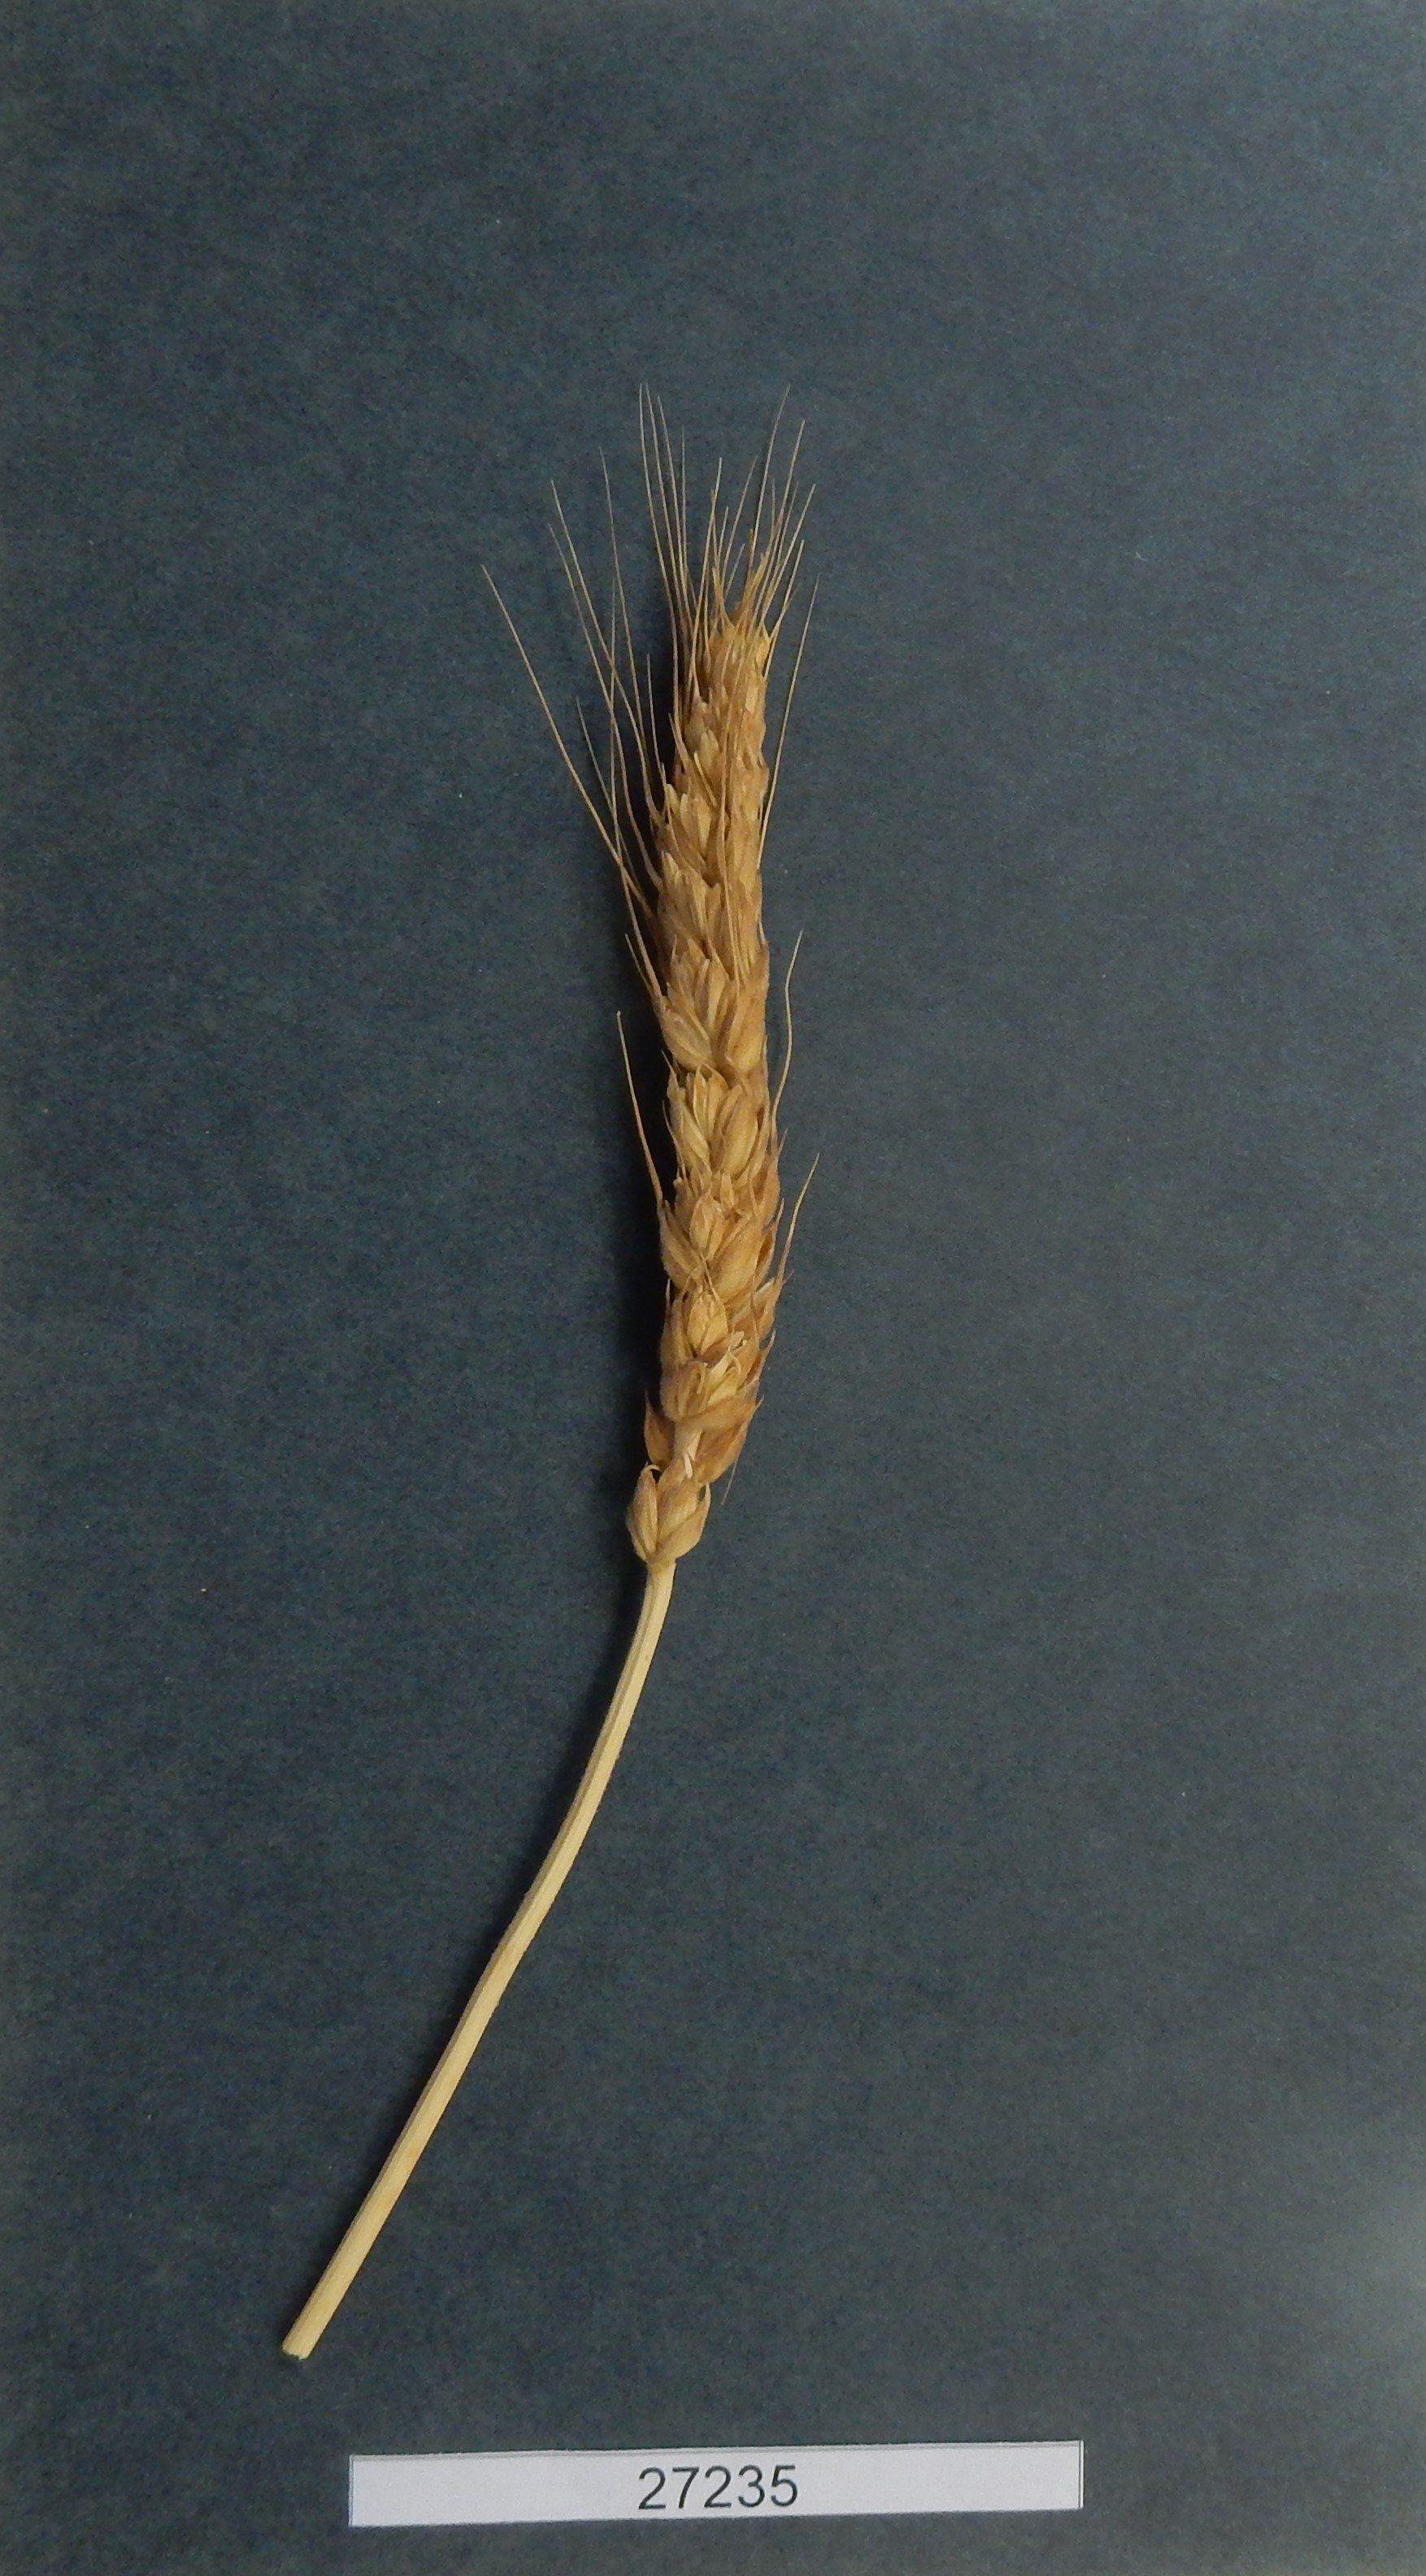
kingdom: Plantae
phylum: Tracheophyta
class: Liliopsida
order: Poales
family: Poaceae
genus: Triticum
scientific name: Triticum
